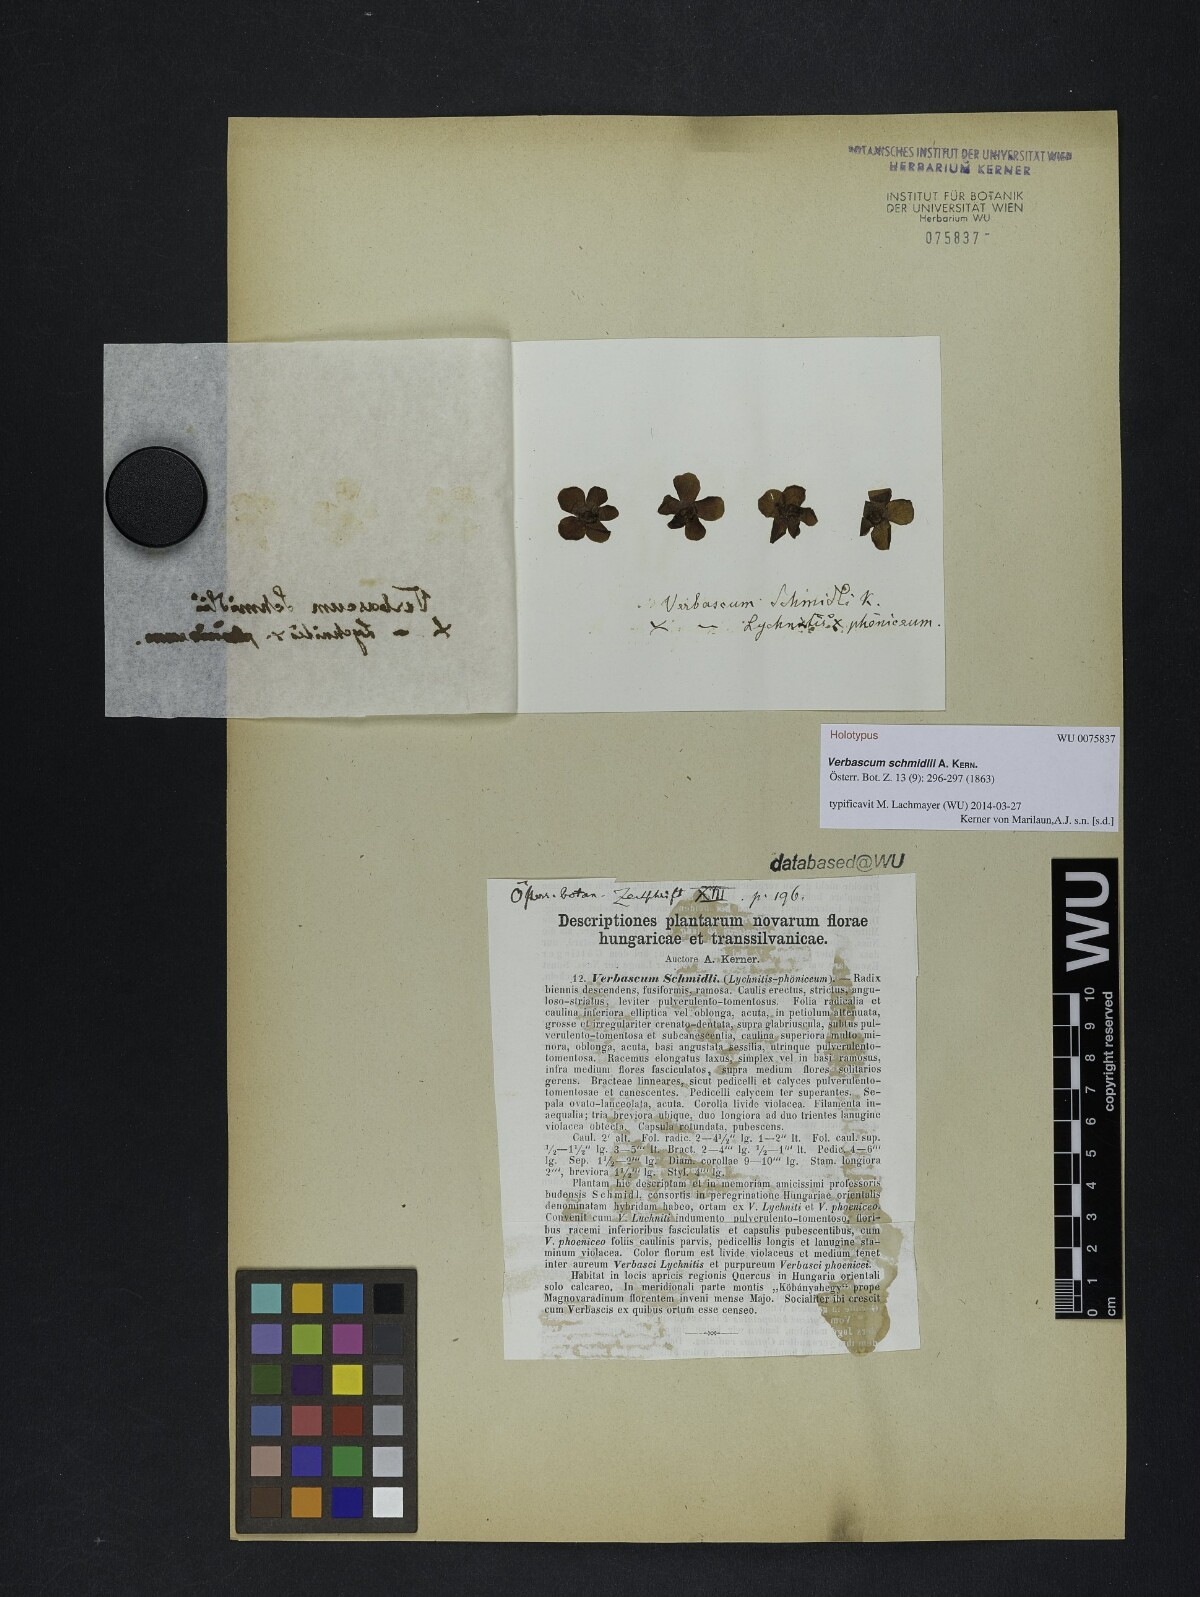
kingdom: Plantae
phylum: Tracheophyta
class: Magnoliopsida
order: Lamiales
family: Scrophulariaceae
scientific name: Scrophulariaceae
